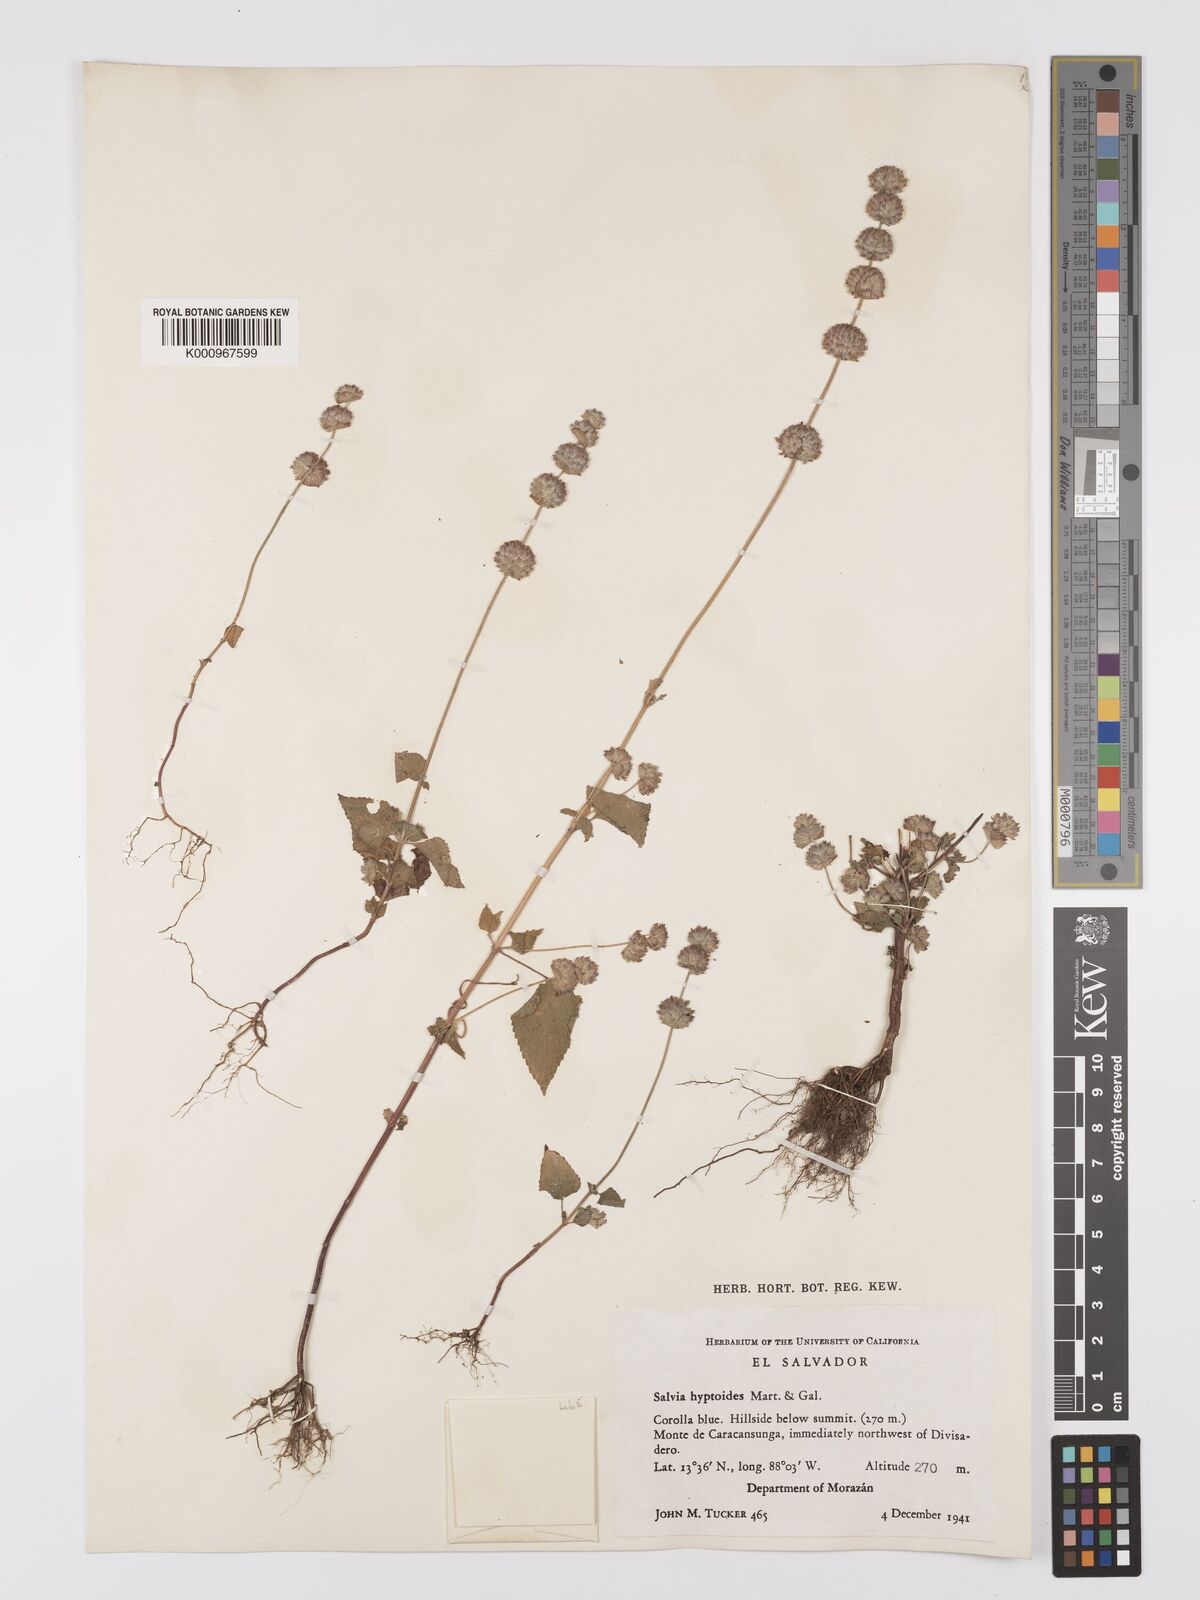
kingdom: Plantae
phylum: Tracheophyta
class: Magnoliopsida
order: Lamiales
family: Lamiaceae
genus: Salvia
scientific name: Salvia lasiocephala
